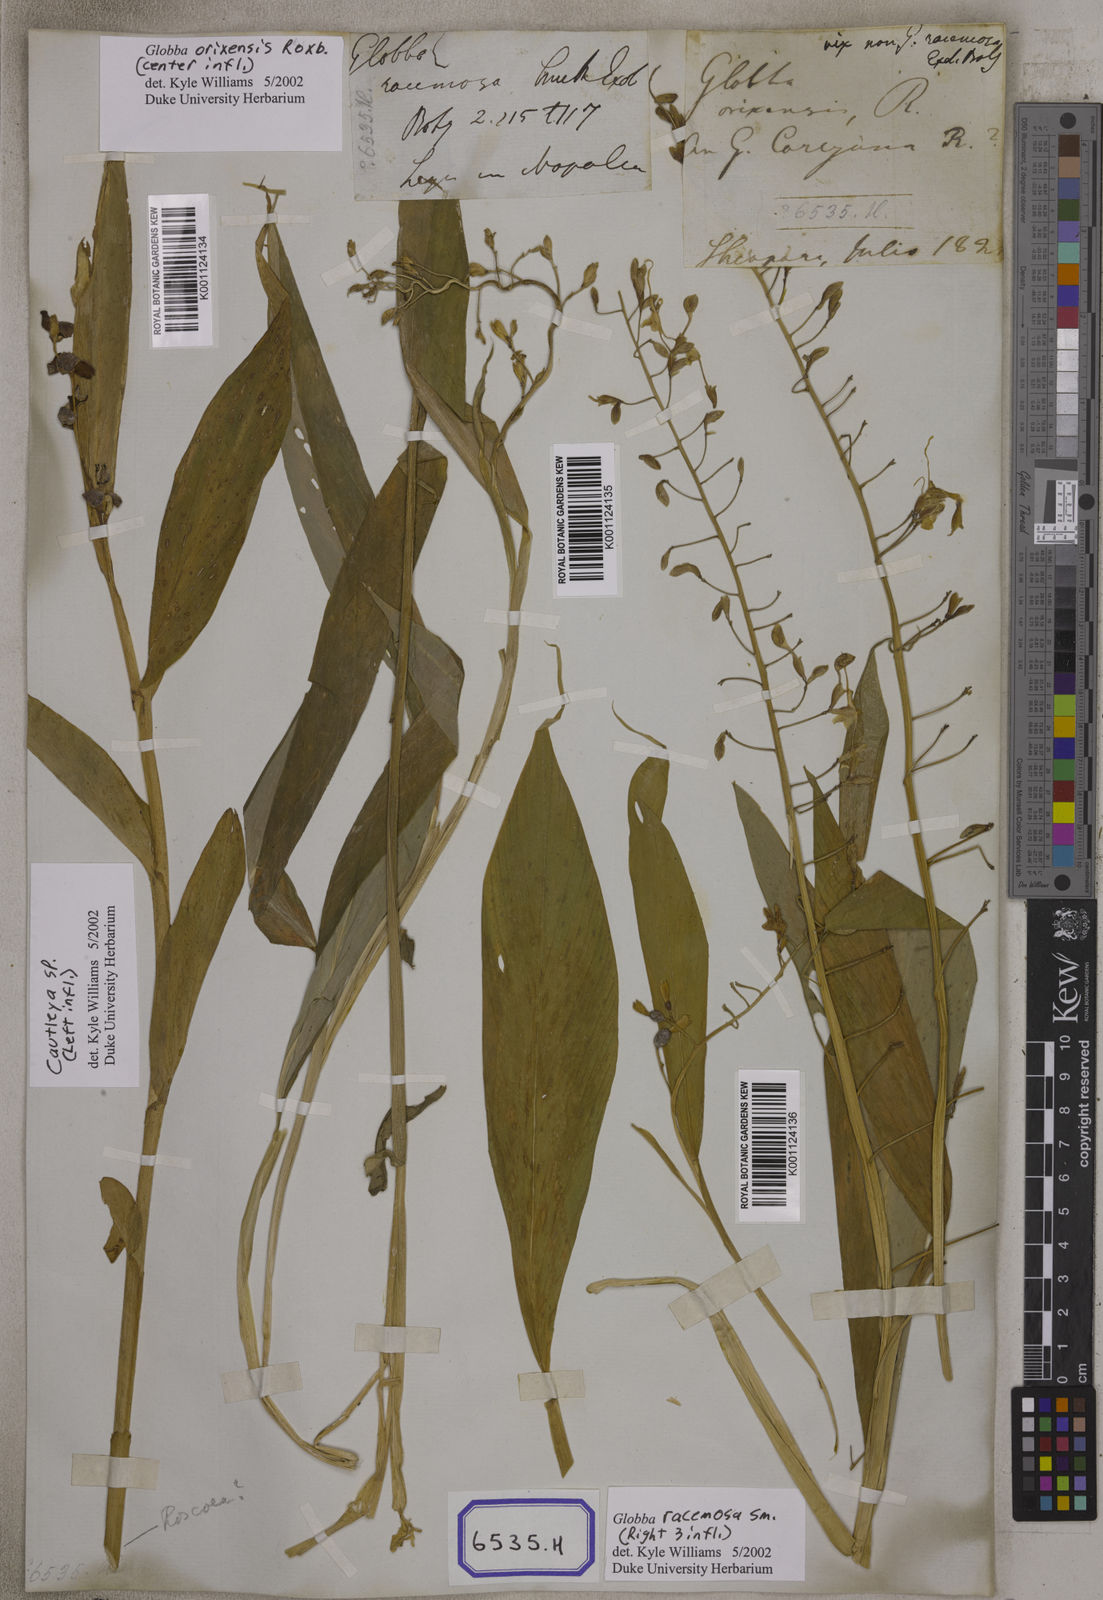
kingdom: Plantae
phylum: Tracheophyta
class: Liliopsida
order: Zingiberales
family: Zingiberaceae
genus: Globba
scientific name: Globba
